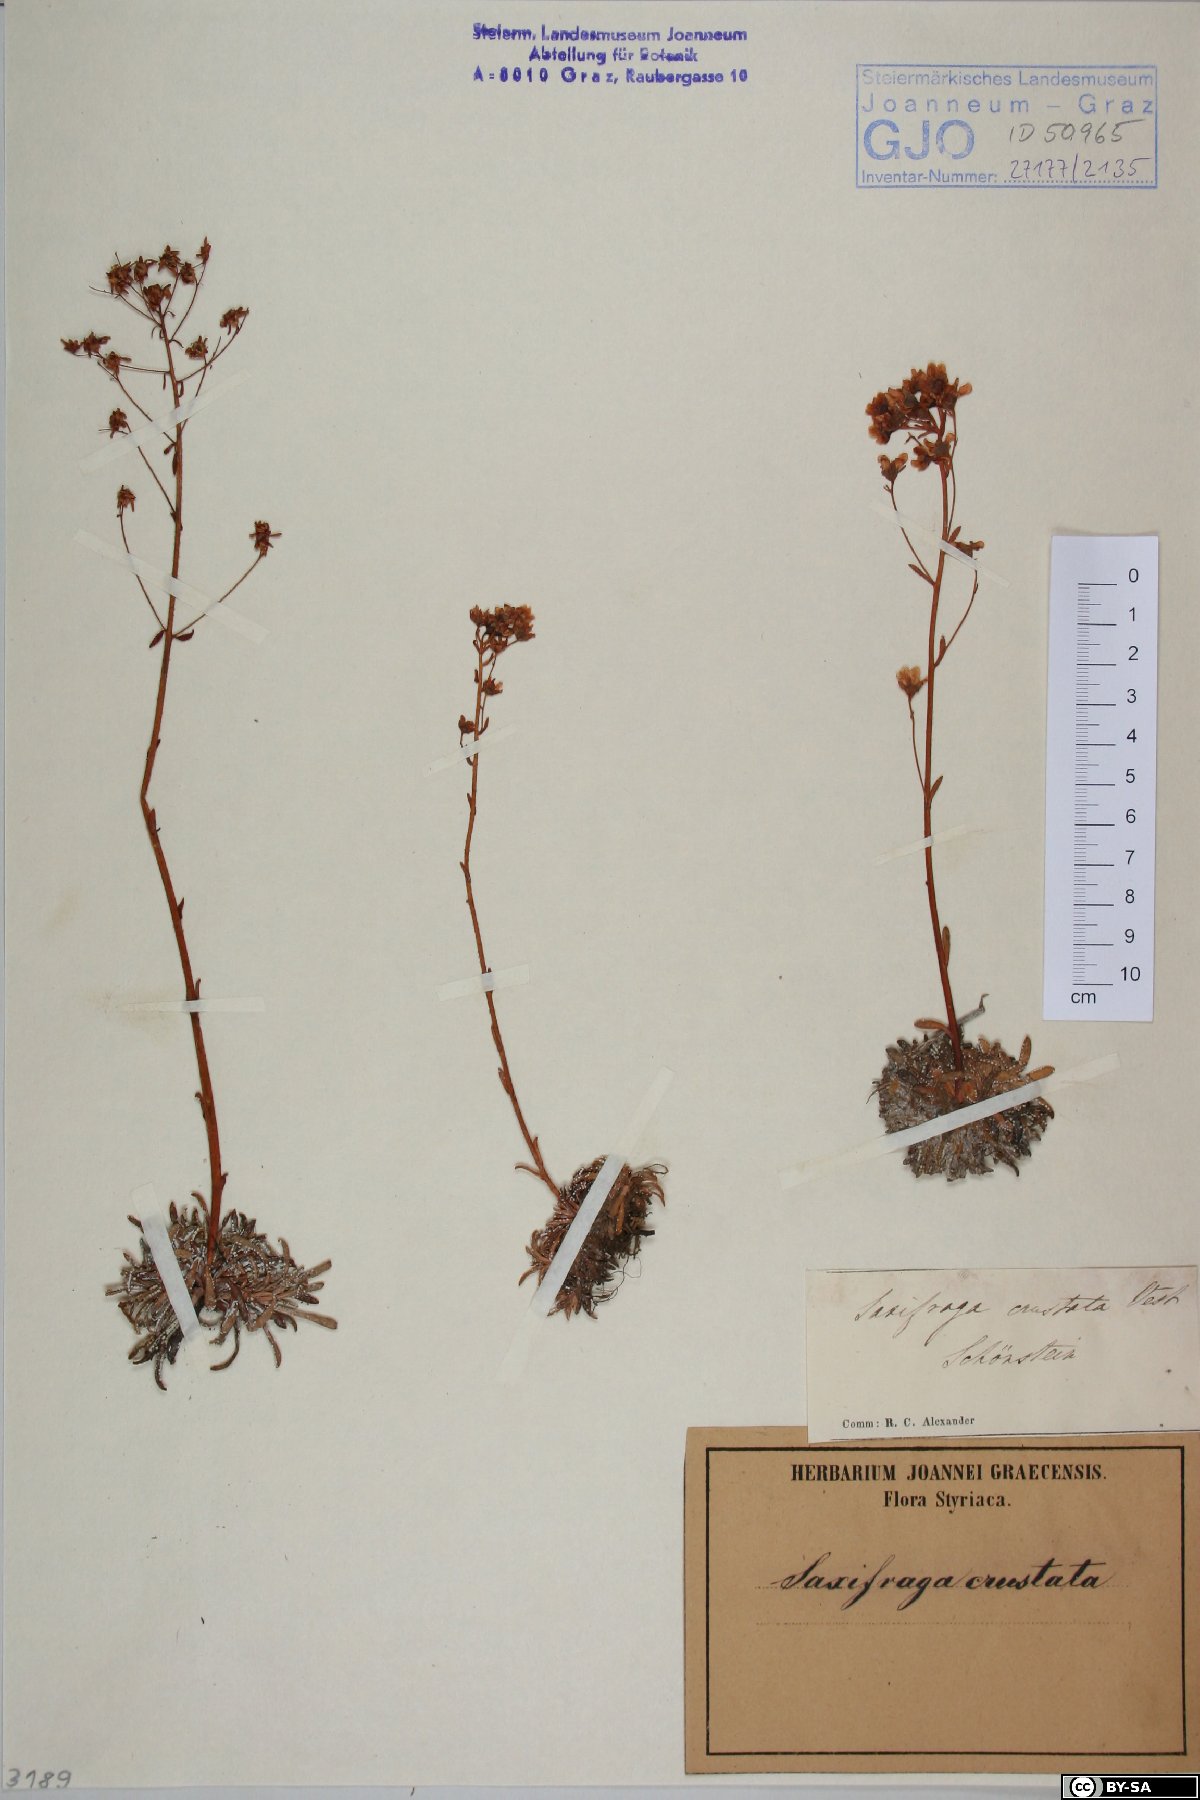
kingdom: Plantae
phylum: Tracheophyta
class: Magnoliopsida
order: Saxifragales
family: Saxifragaceae
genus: Saxifraga
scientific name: Saxifraga crustata
